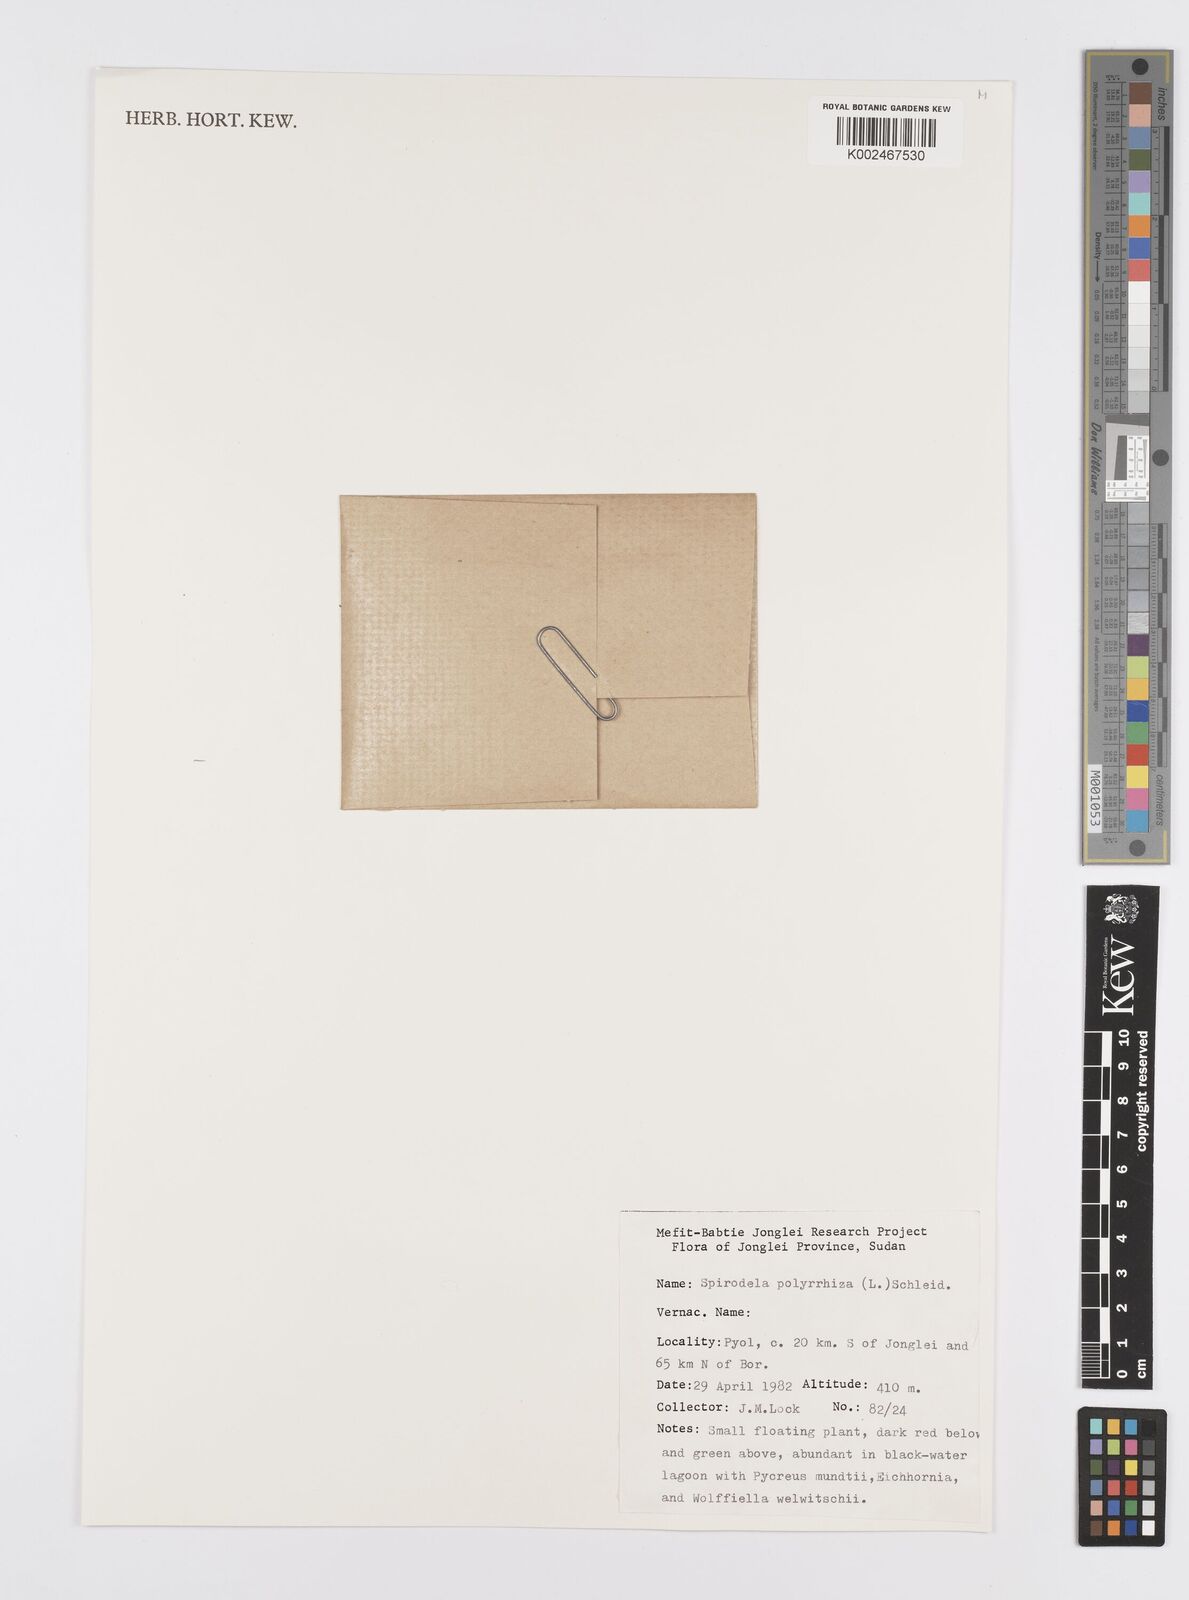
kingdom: Plantae
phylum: Tracheophyta
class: Liliopsida
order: Alismatales
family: Araceae
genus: Spirodela
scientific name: Spirodela polyrhiza
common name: Great duckweed
